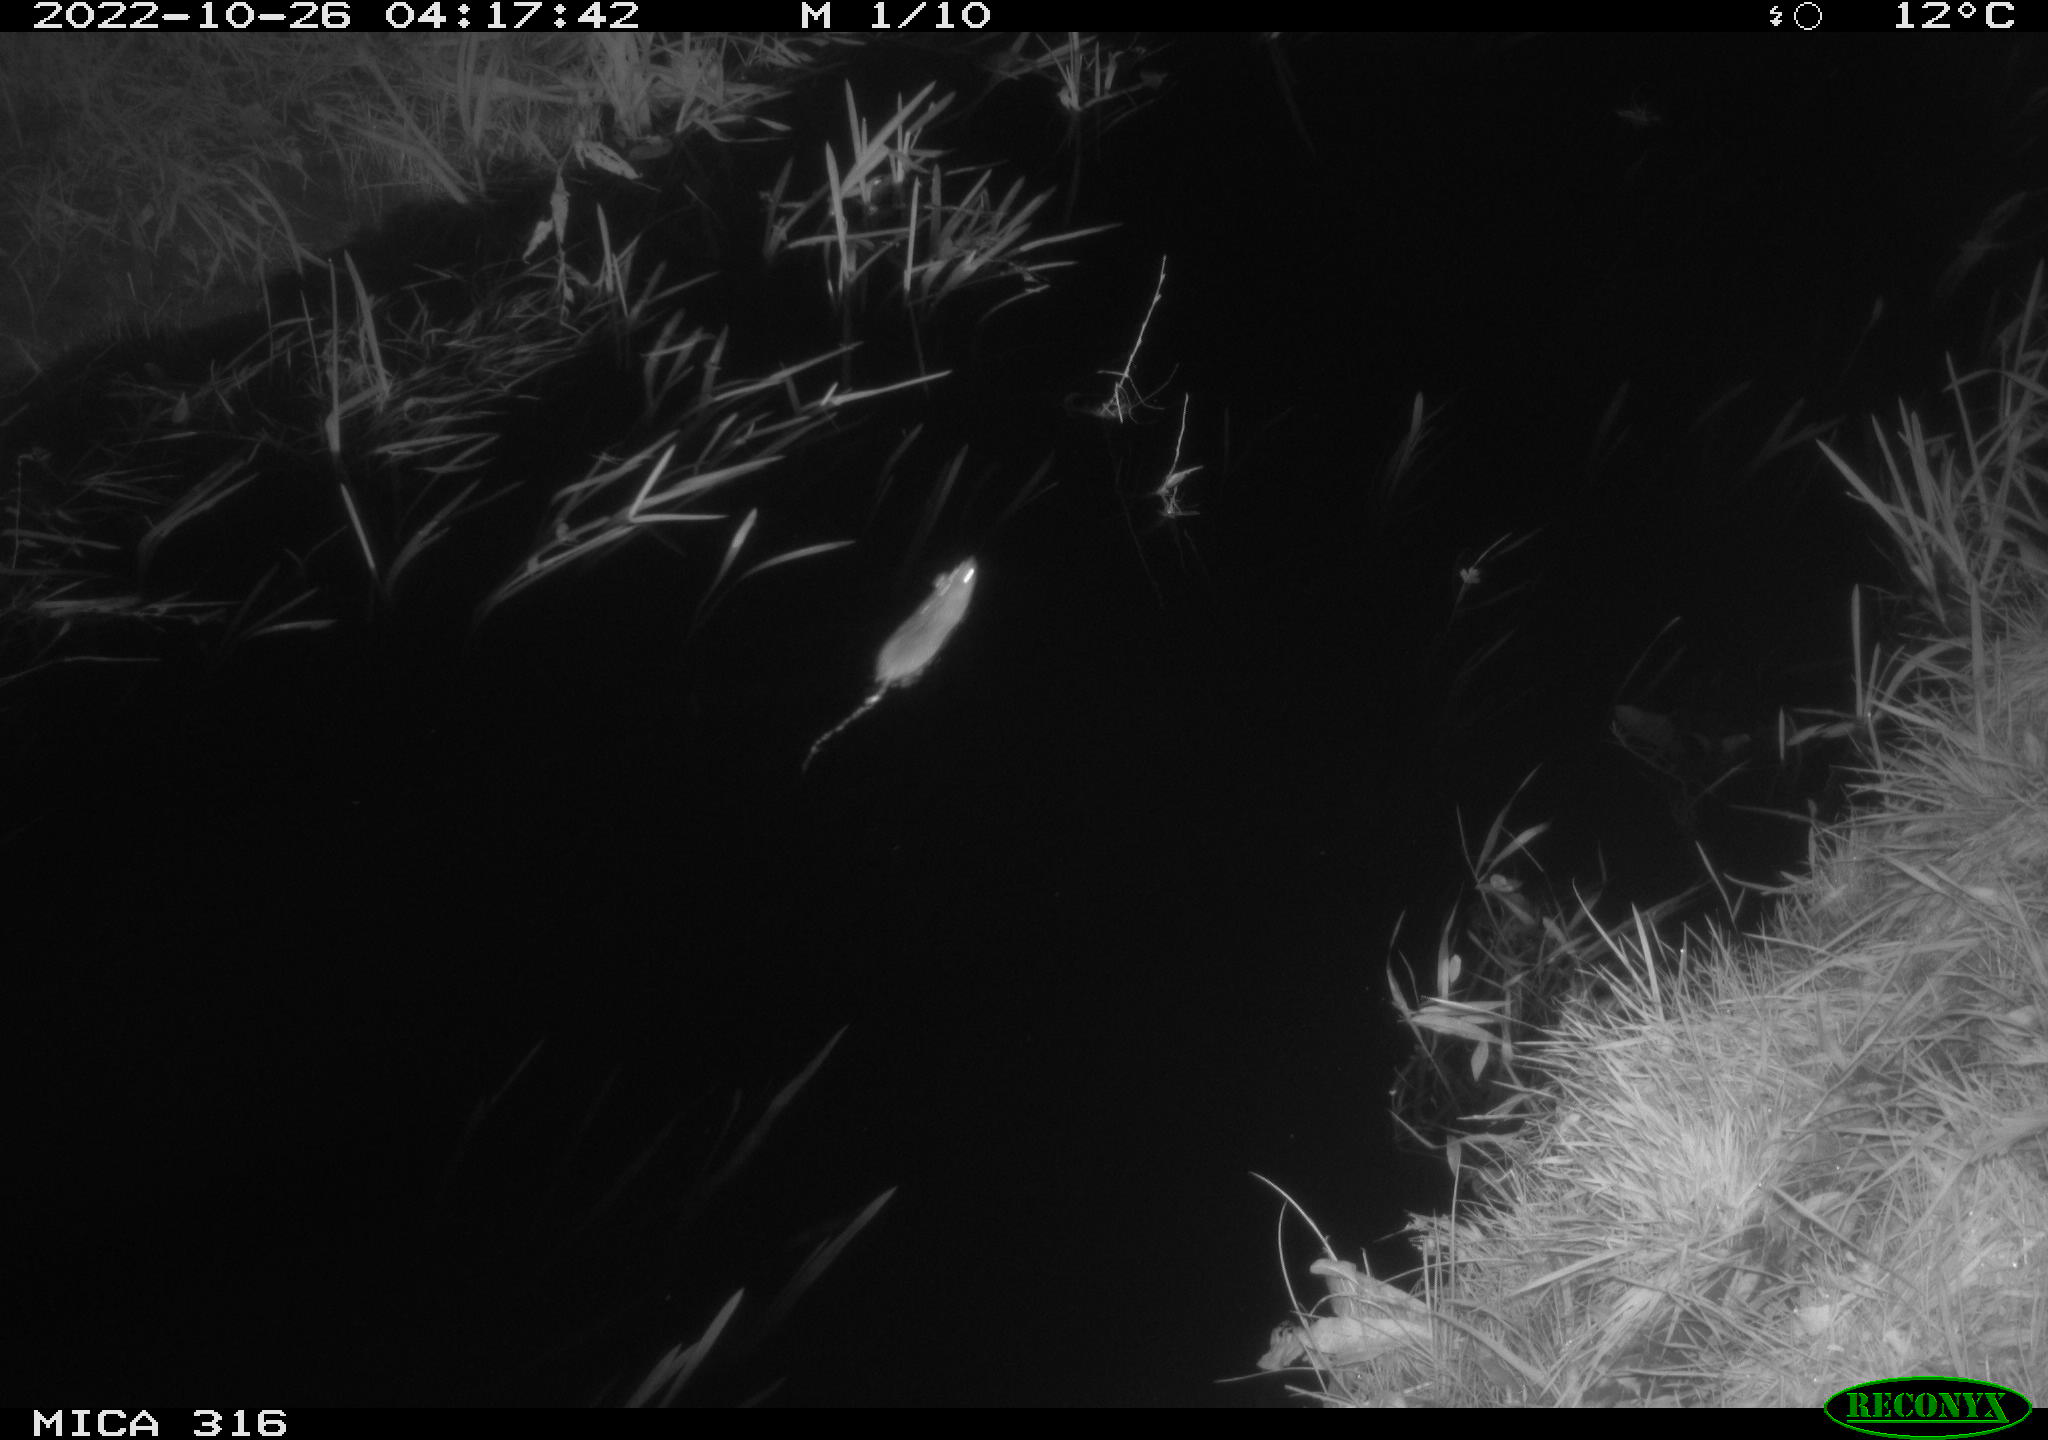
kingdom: Animalia
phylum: Chordata
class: Mammalia
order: Rodentia
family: Muridae
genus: Rattus
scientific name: Rattus norvegicus
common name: Brown rat
